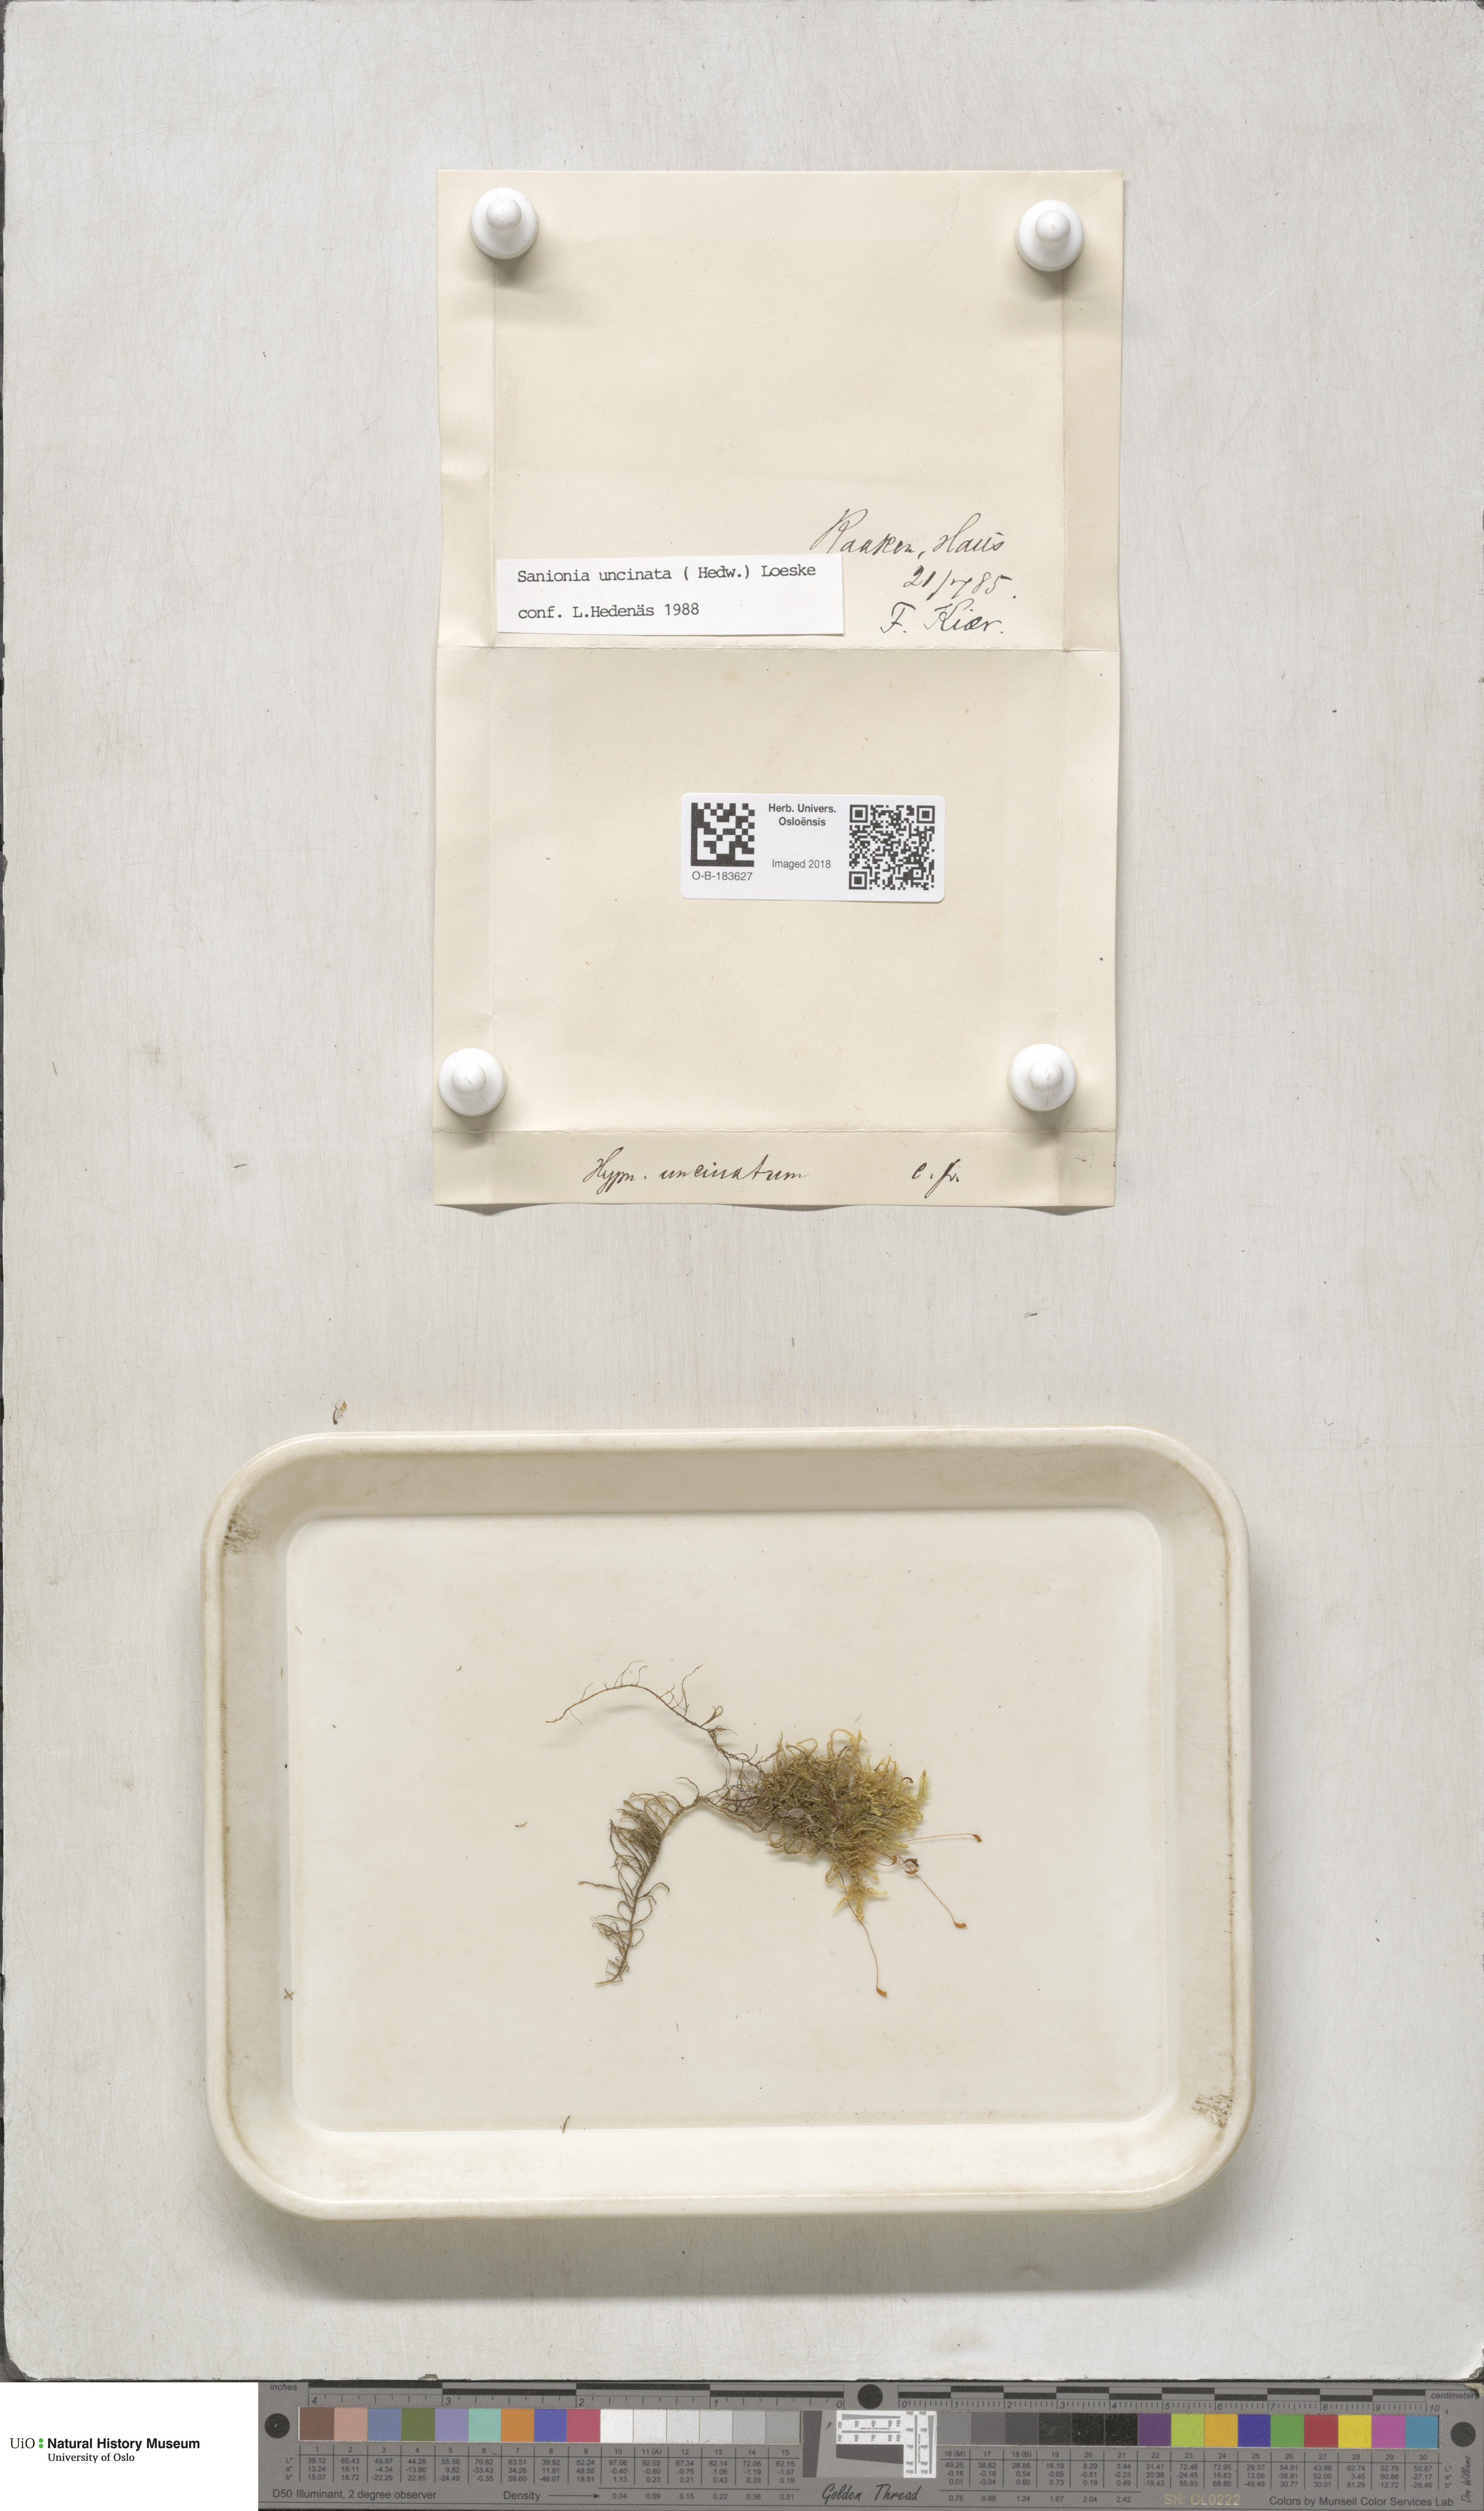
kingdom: Plantae
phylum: Bryophyta
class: Bryopsida
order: Hypnales
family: Scorpidiaceae
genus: Sanionia
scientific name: Sanionia uncinata
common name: Sickle moss
